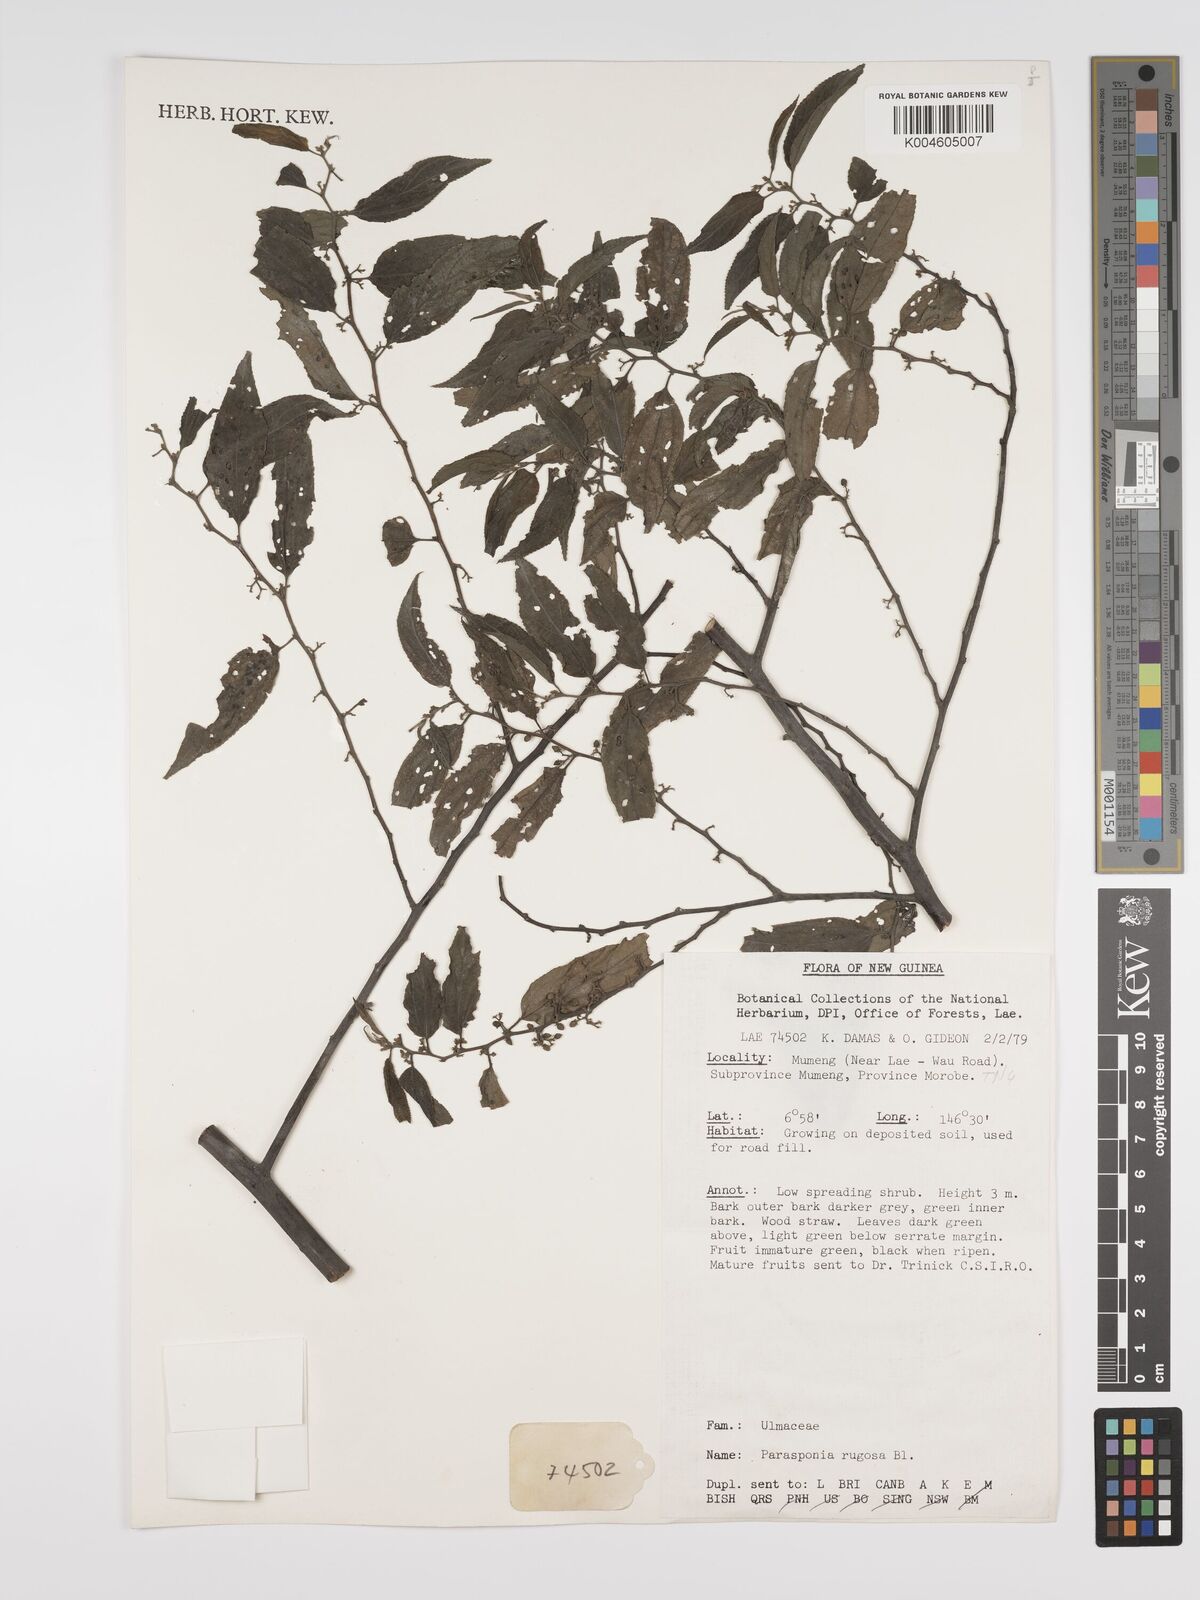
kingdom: Plantae
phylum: Tracheophyta
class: Magnoliopsida
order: Rosales
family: Cannabaceae
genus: Trema
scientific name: Trema eurhynchum
